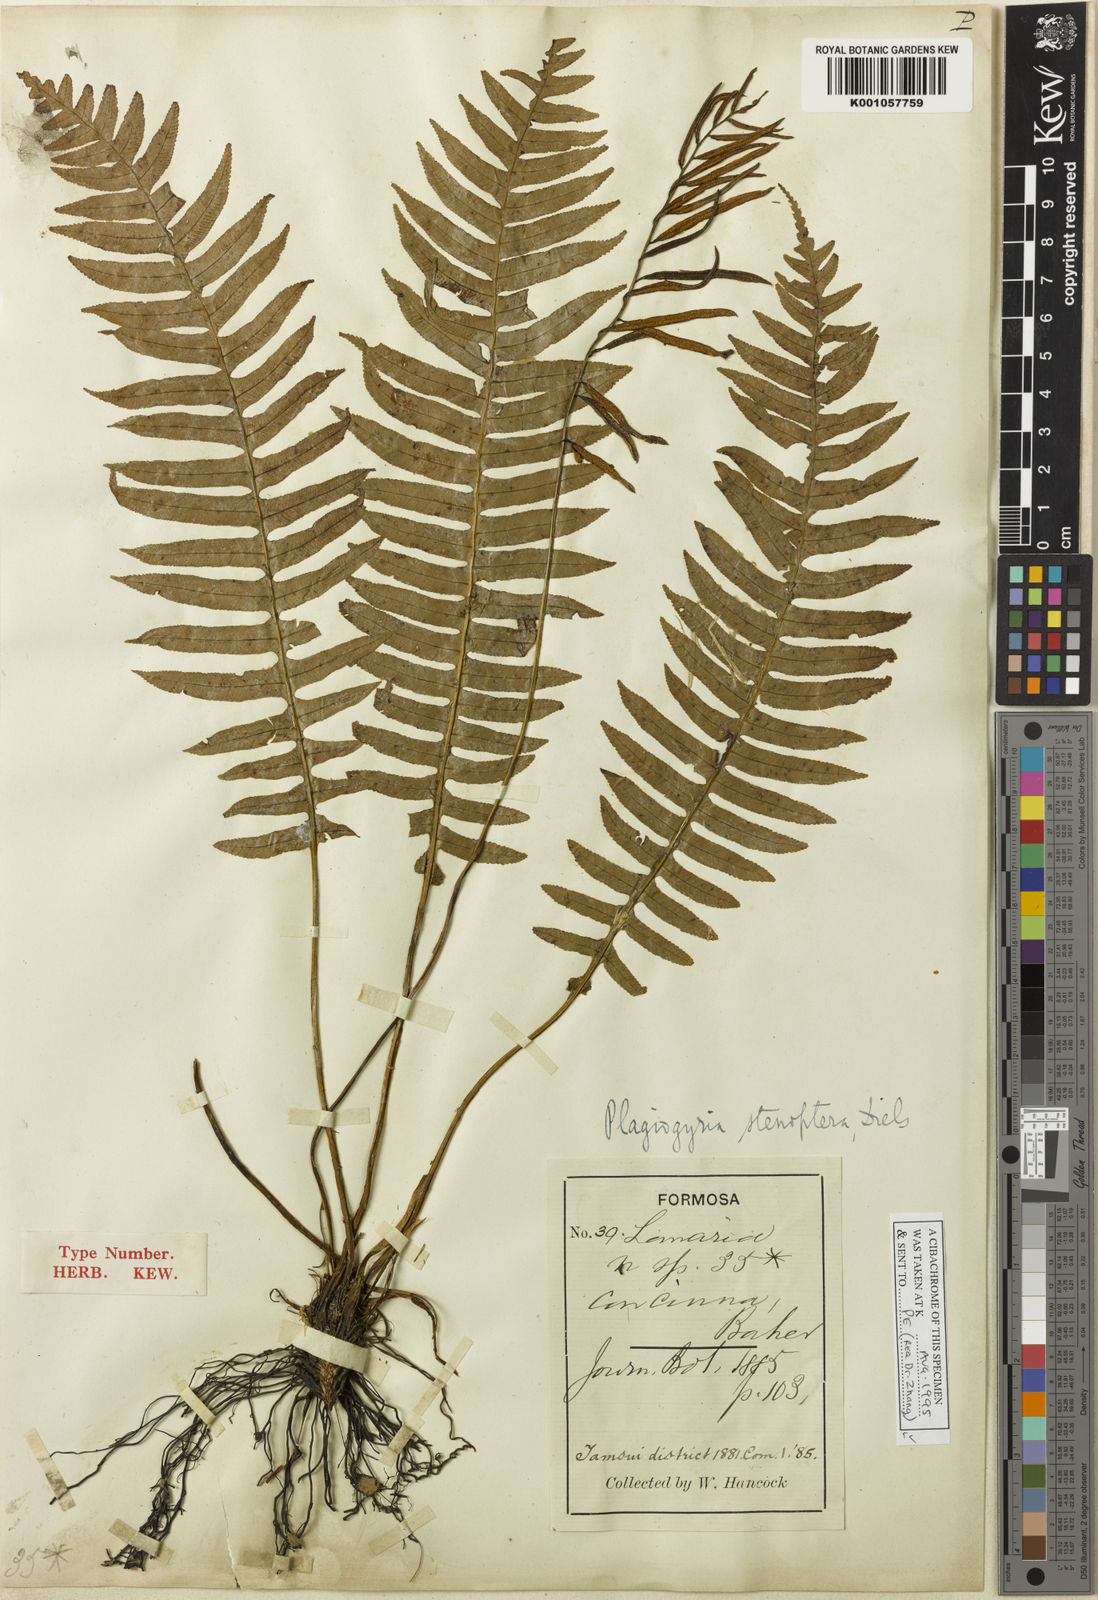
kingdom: Plantae
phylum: Tracheophyta
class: Polypodiopsida
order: Cyatheales
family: Plagiogyriaceae
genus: Plagiogyria
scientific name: Plagiogyria stenoptera
